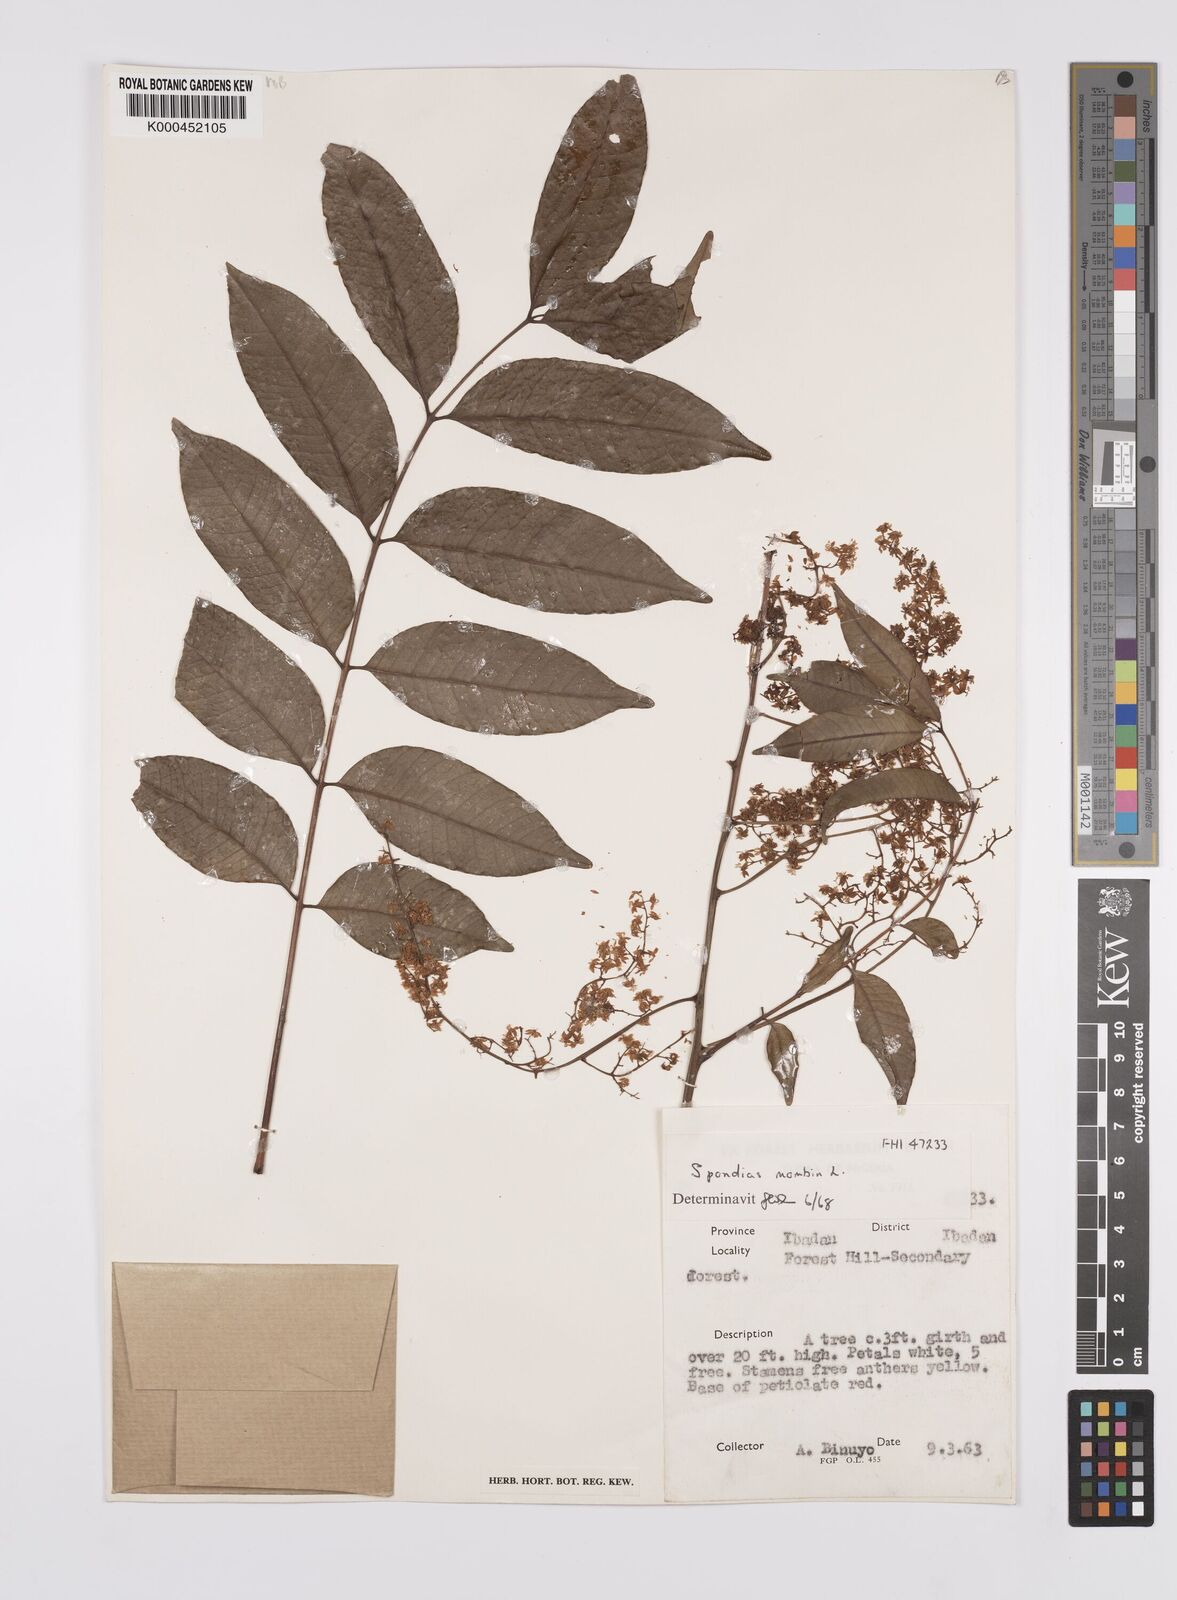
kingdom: Plantae
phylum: Tracheophyta
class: Magnoliopsida
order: Sapindales
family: Anacardiaceae
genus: Spondias
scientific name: Spondias mombin
